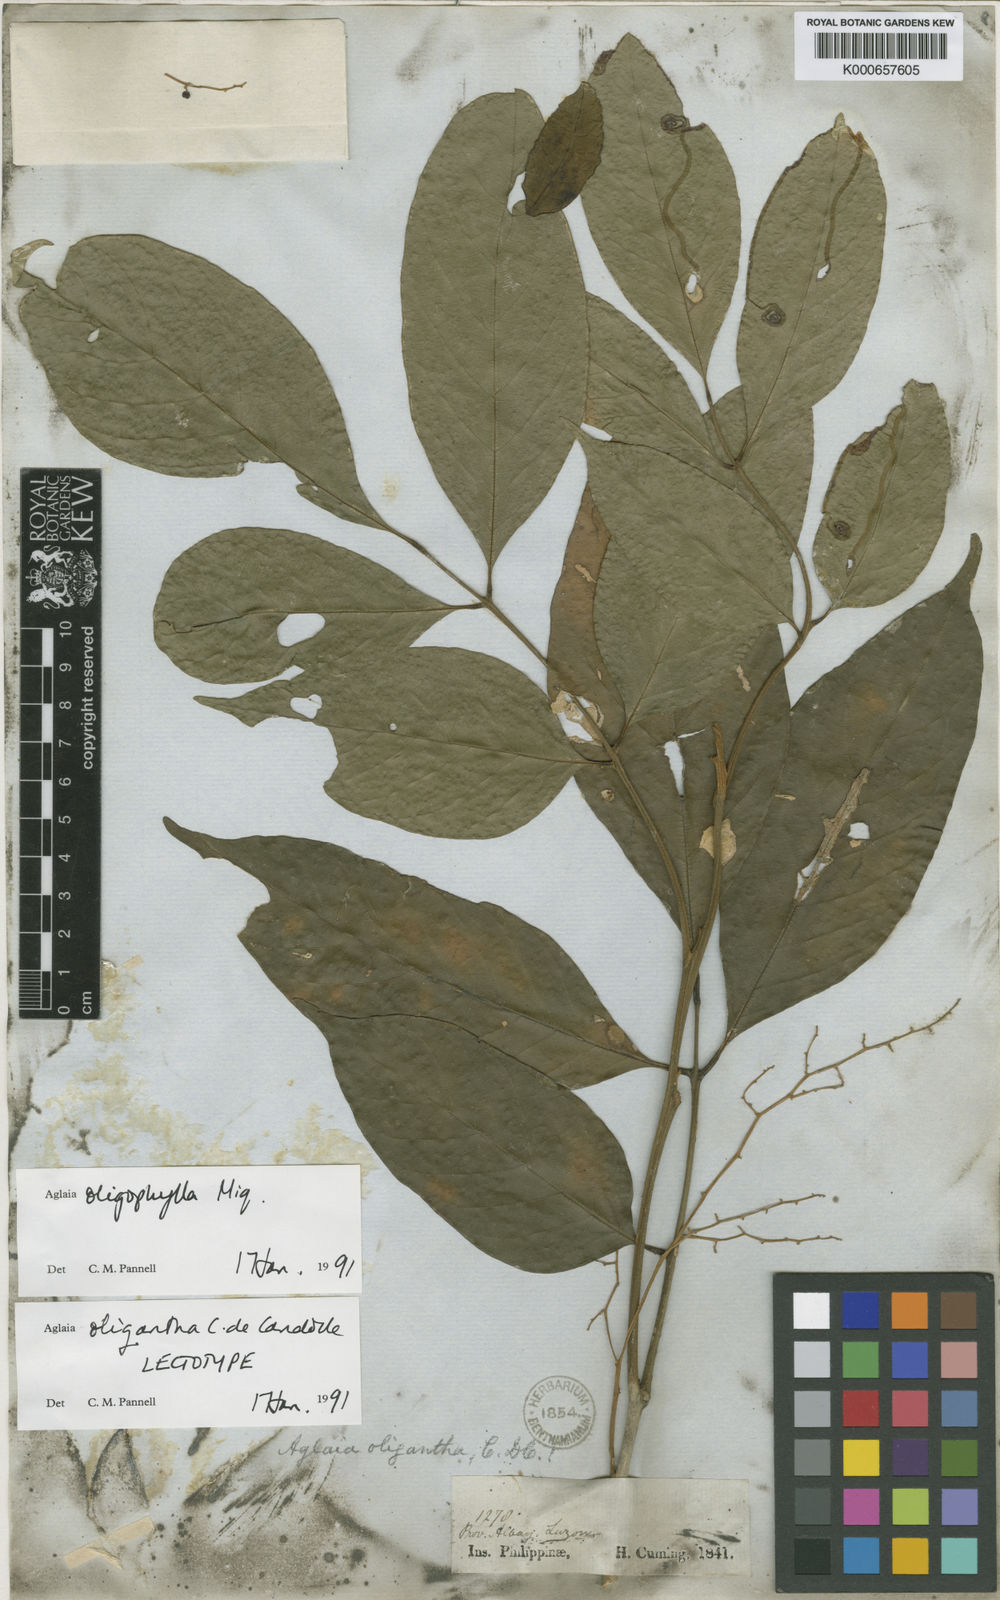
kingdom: Plantae
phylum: Tracheophyta
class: Magnoliopsida
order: Sapindales
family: Meliaceae
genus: Aglaia
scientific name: Aglaia oligophylla
